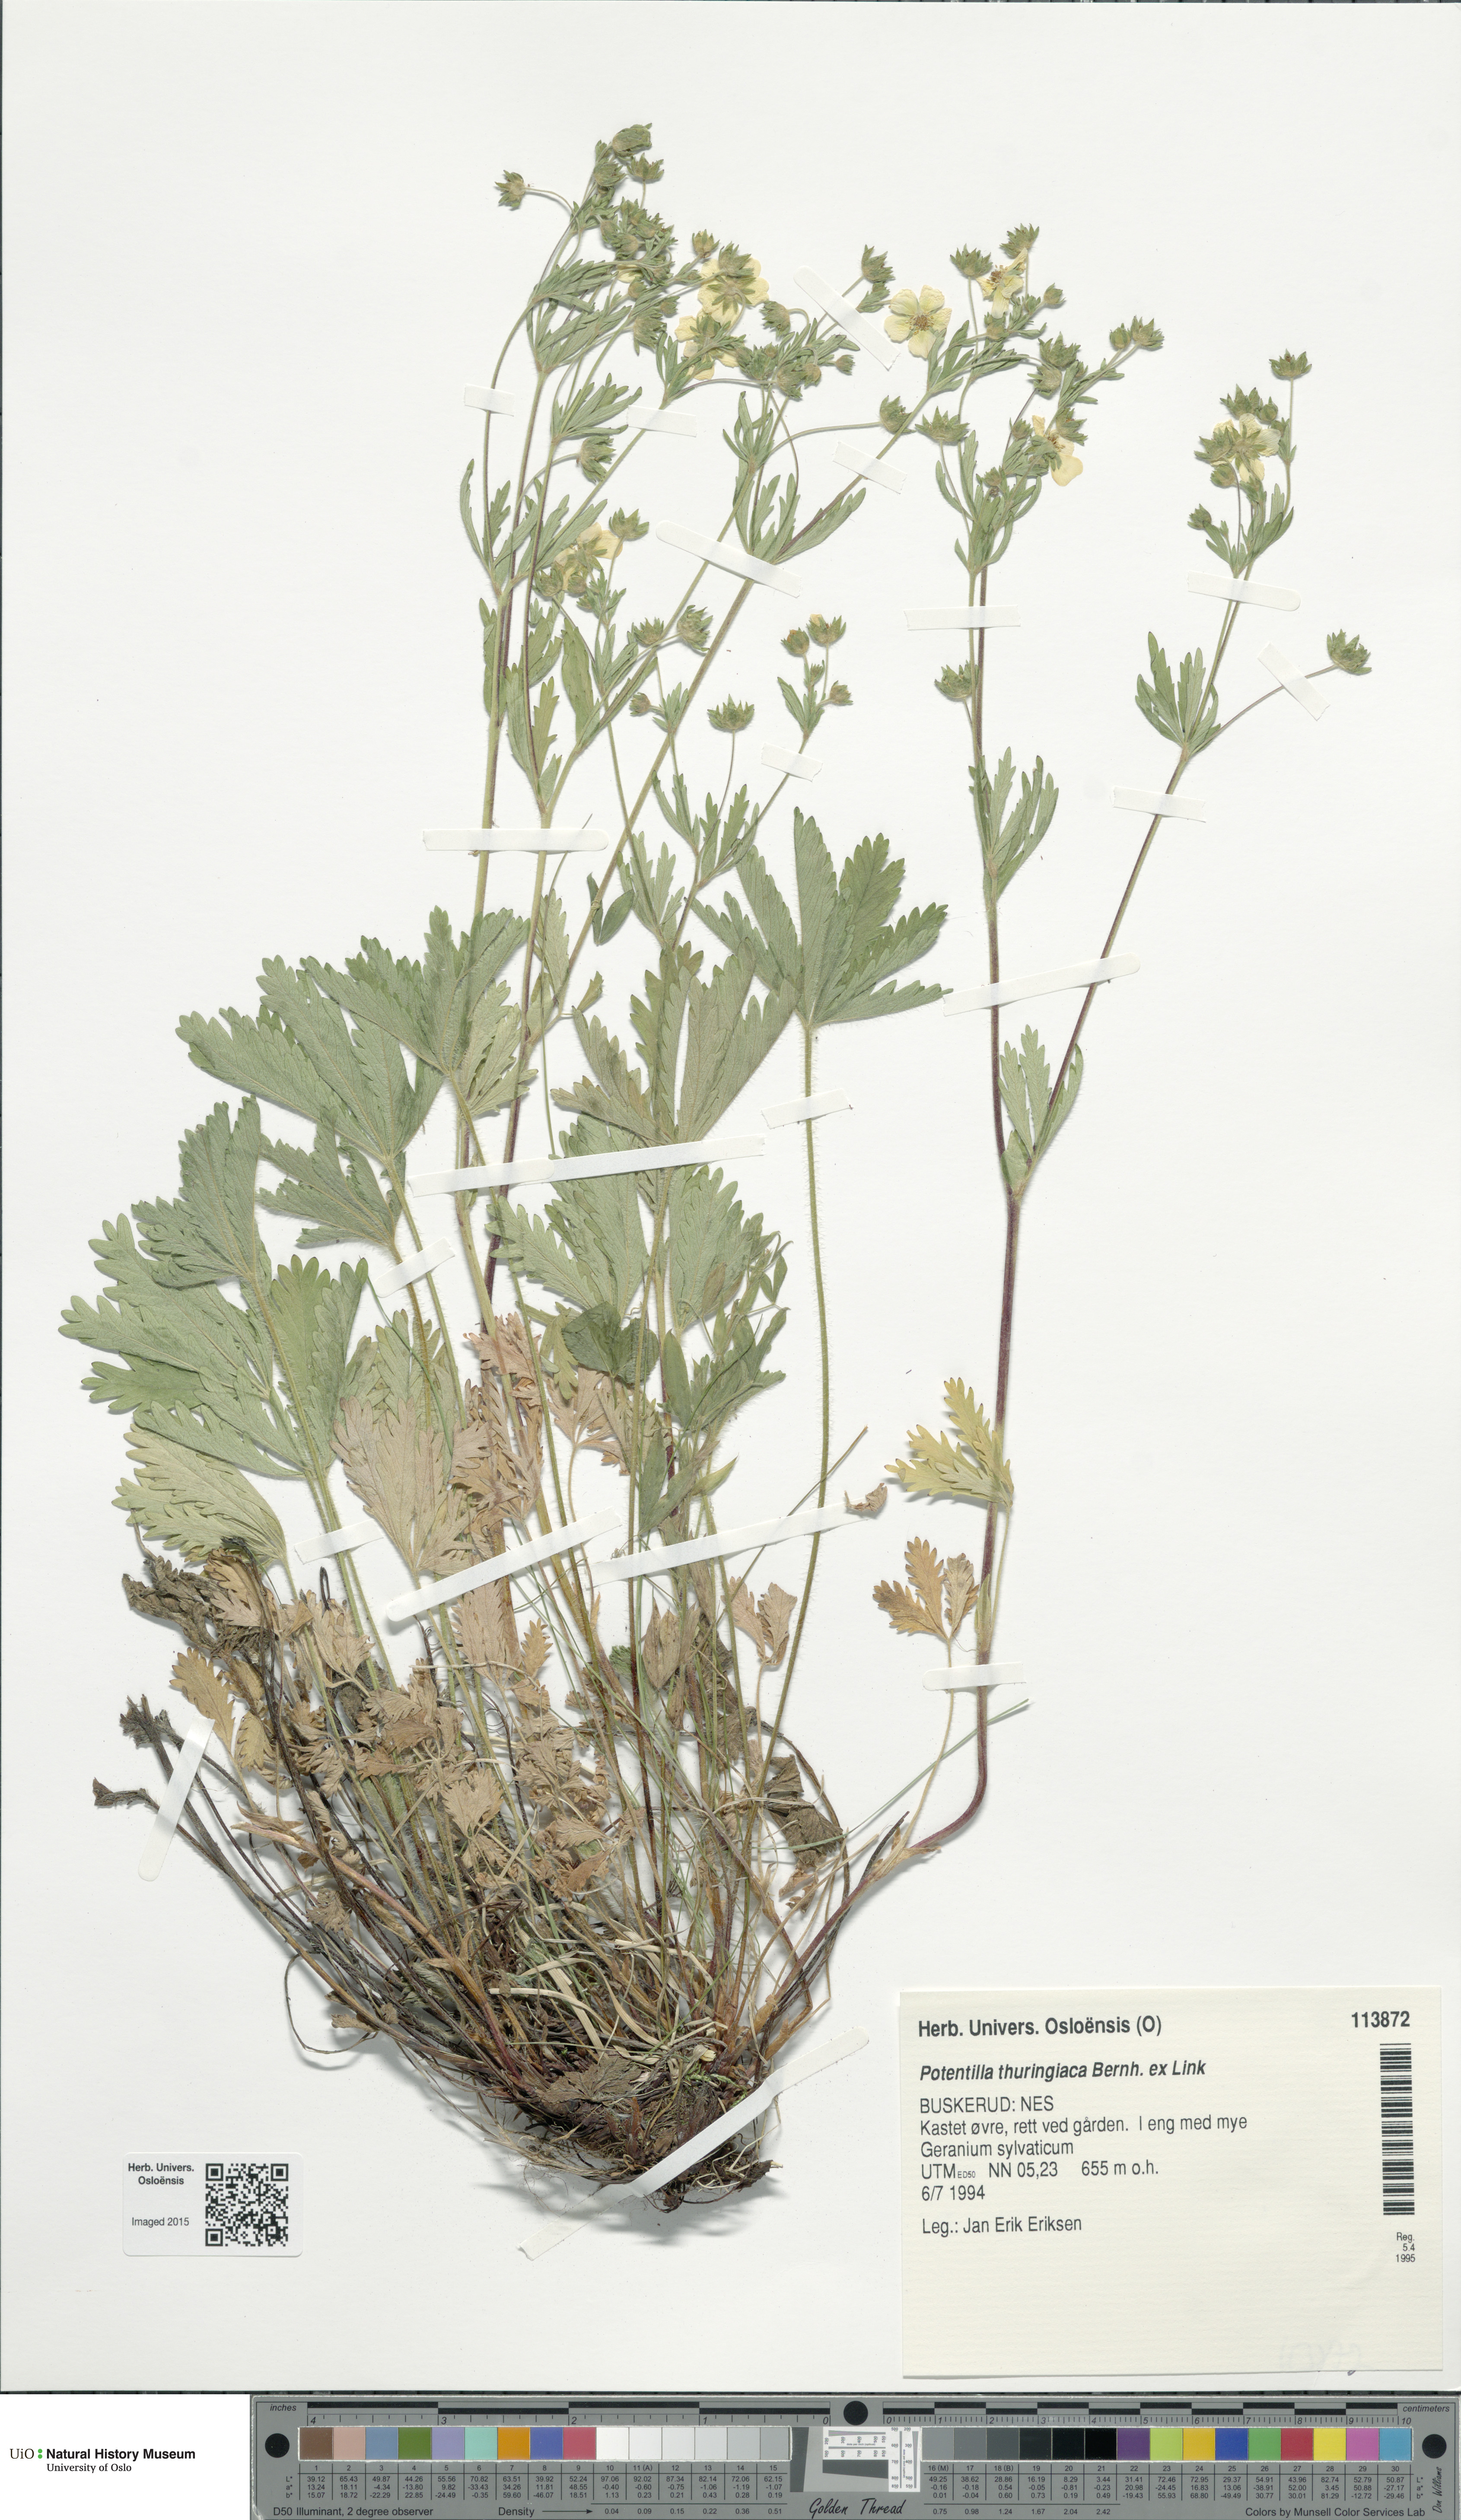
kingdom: Plantae
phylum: Tracheophyta
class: Magnoliopsida
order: Rosales
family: Rosaceae
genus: Potentilla
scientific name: Potentilla thuringiaca
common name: European cinquefoil
